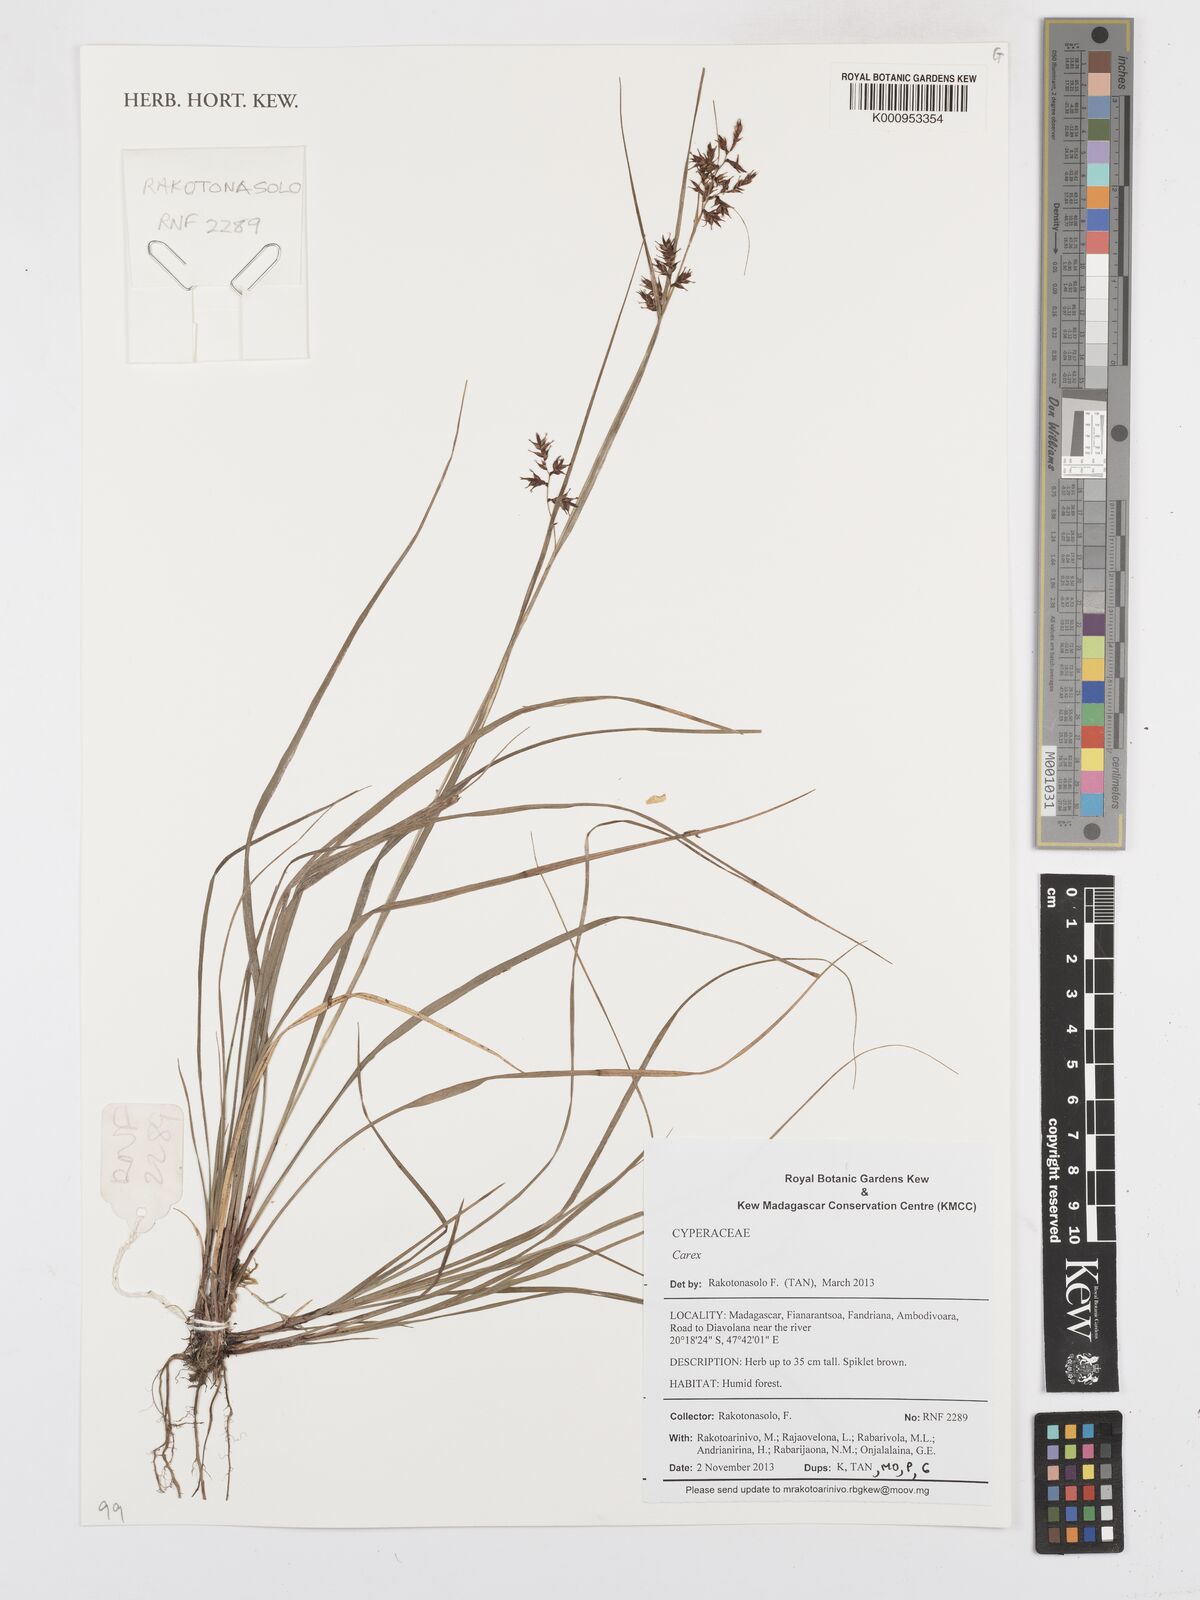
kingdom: Plantae
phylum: Tracheophyta
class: Liliopsida
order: Poales
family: Cyperaceae
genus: Carex
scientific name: Carex
